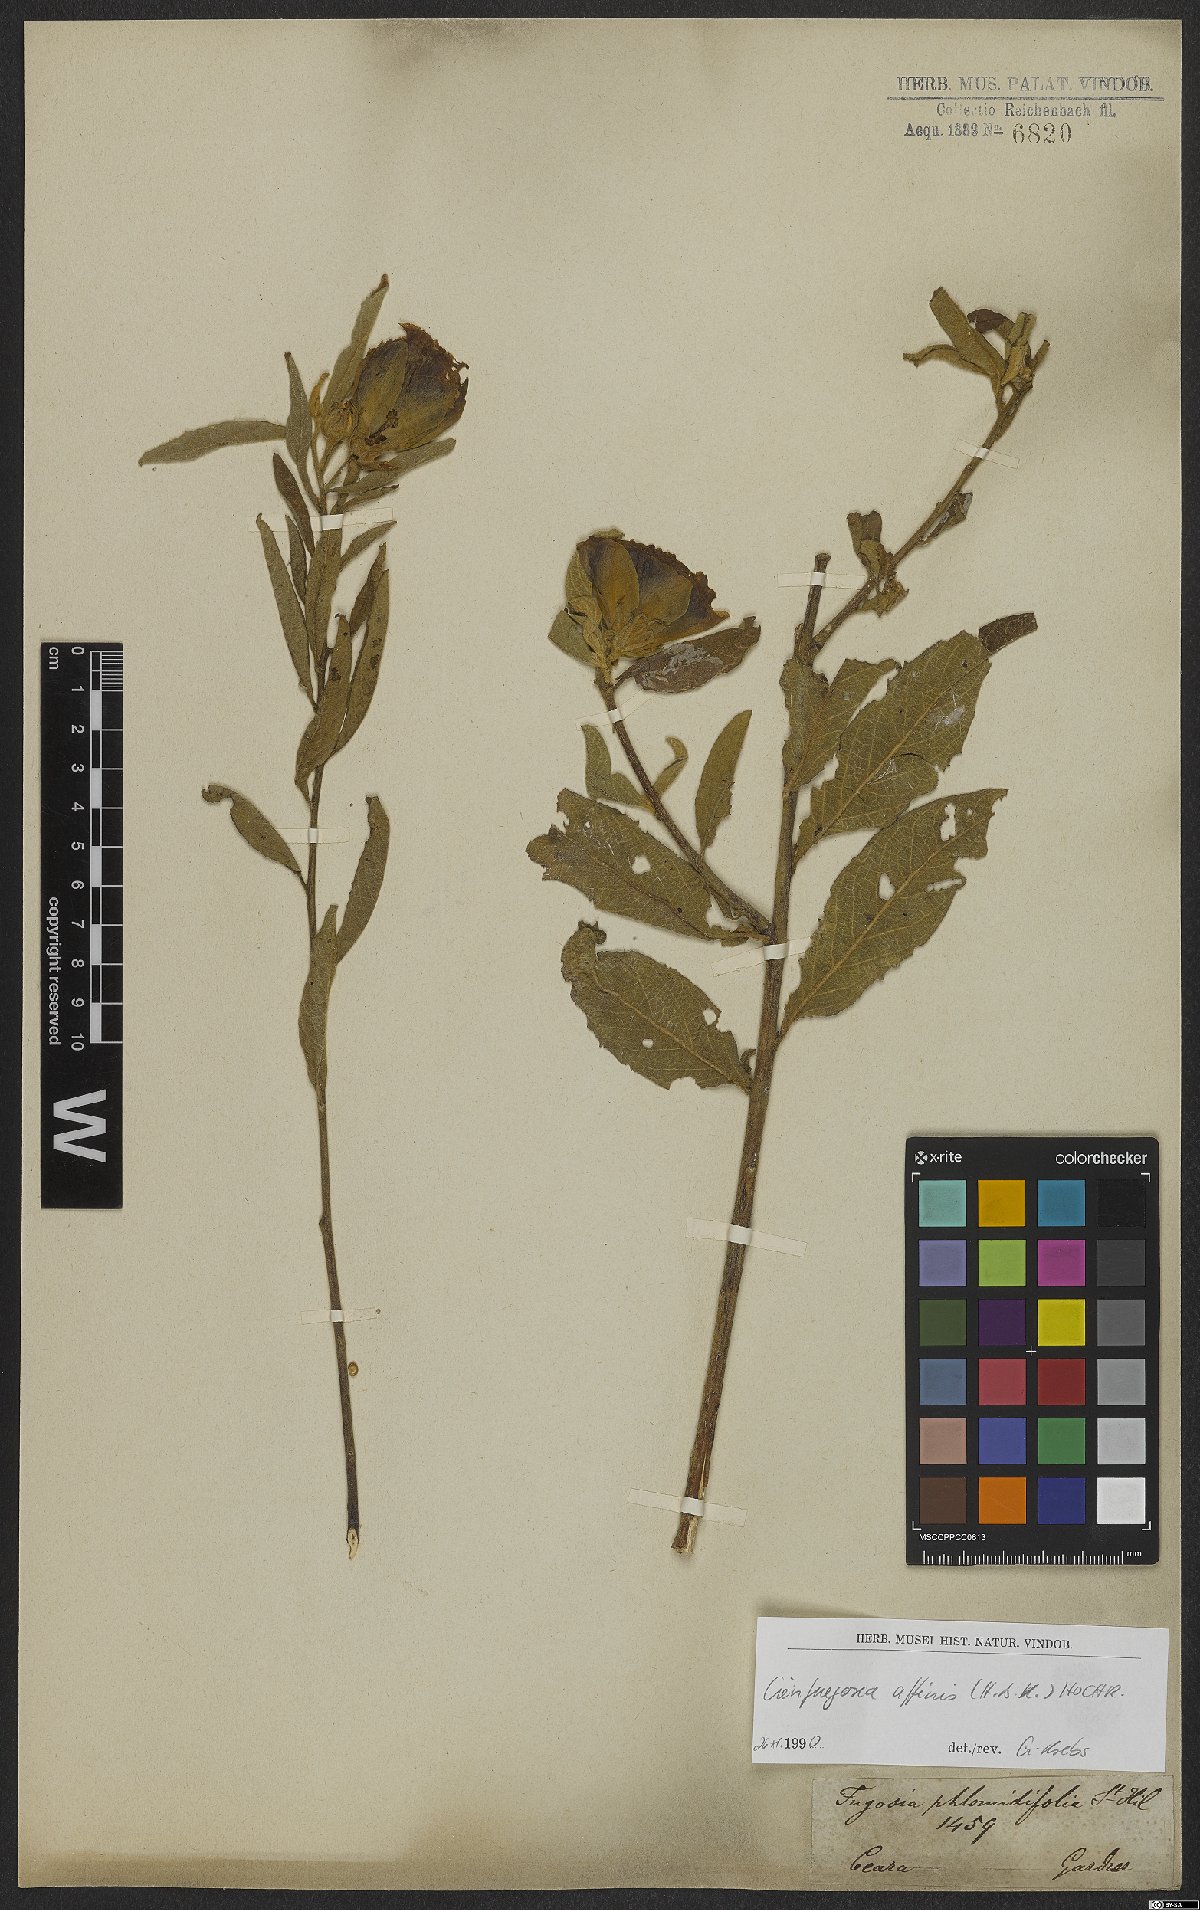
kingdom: Plantae
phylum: Tracheophyta
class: Magnoliopsida
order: Malvales
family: Malvaceae
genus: Cienfuegosia
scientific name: Cienfuegosia affinis
